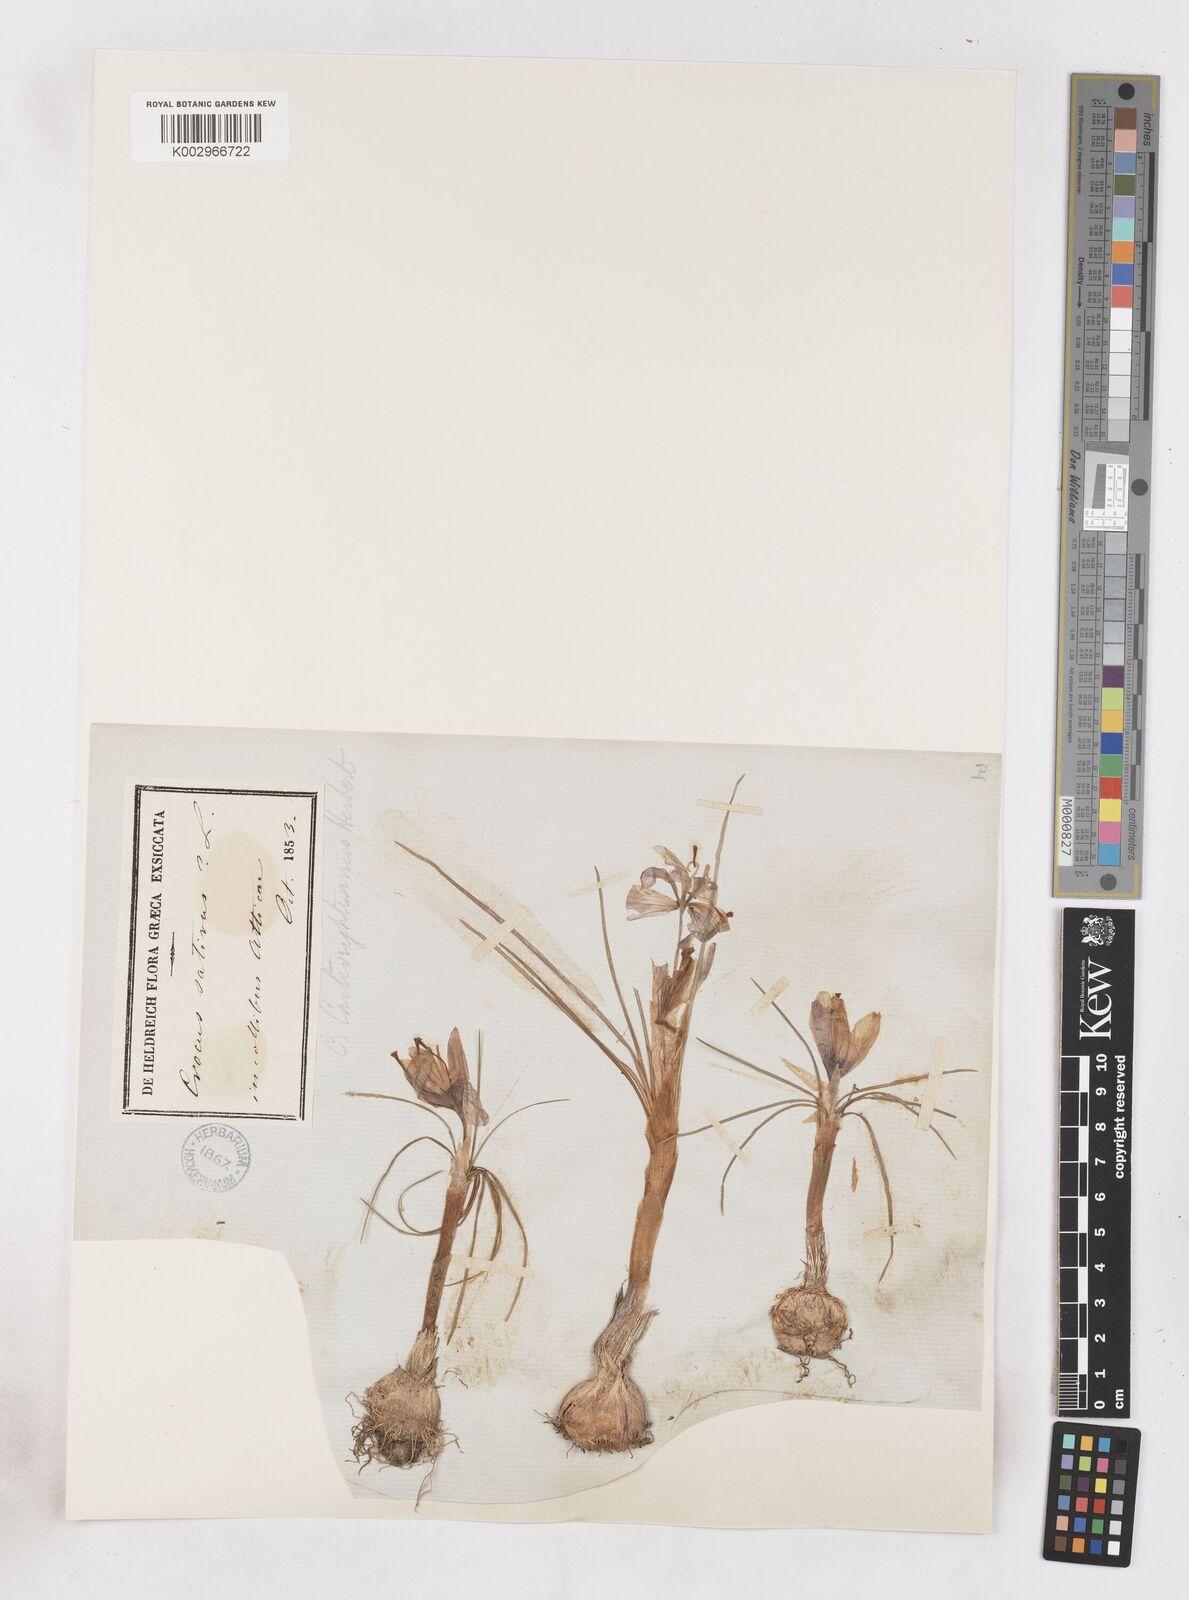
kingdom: Plantae
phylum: Tracheophyta
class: Liliopsida
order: Asparagales
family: Iridaceae
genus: Crocus
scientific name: Crocus cartwrightianus
